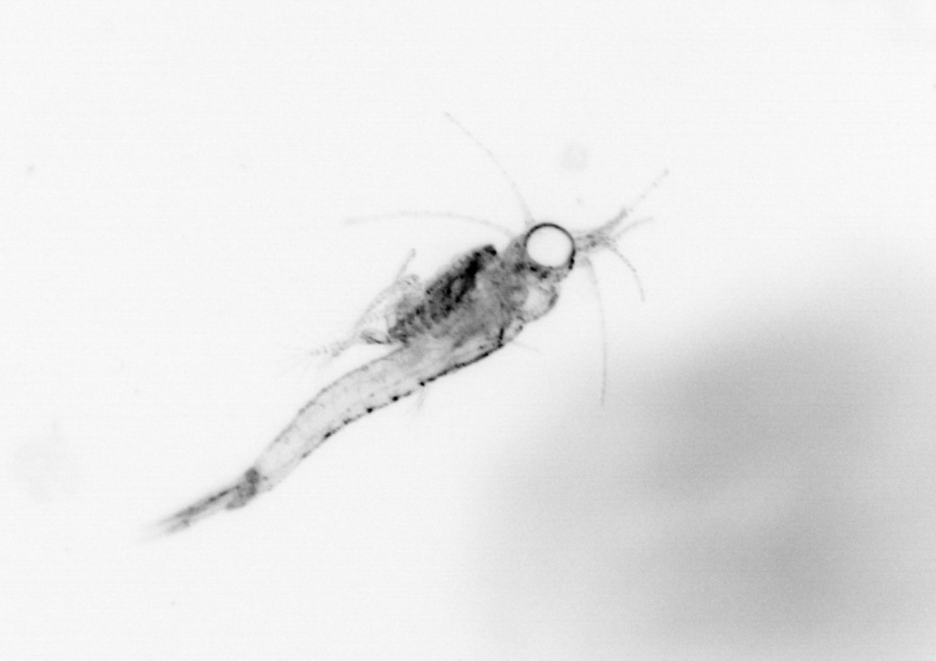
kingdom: Animalia
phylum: Arthropoda
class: Malacostraca
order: Decapoda
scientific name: Decapoda
